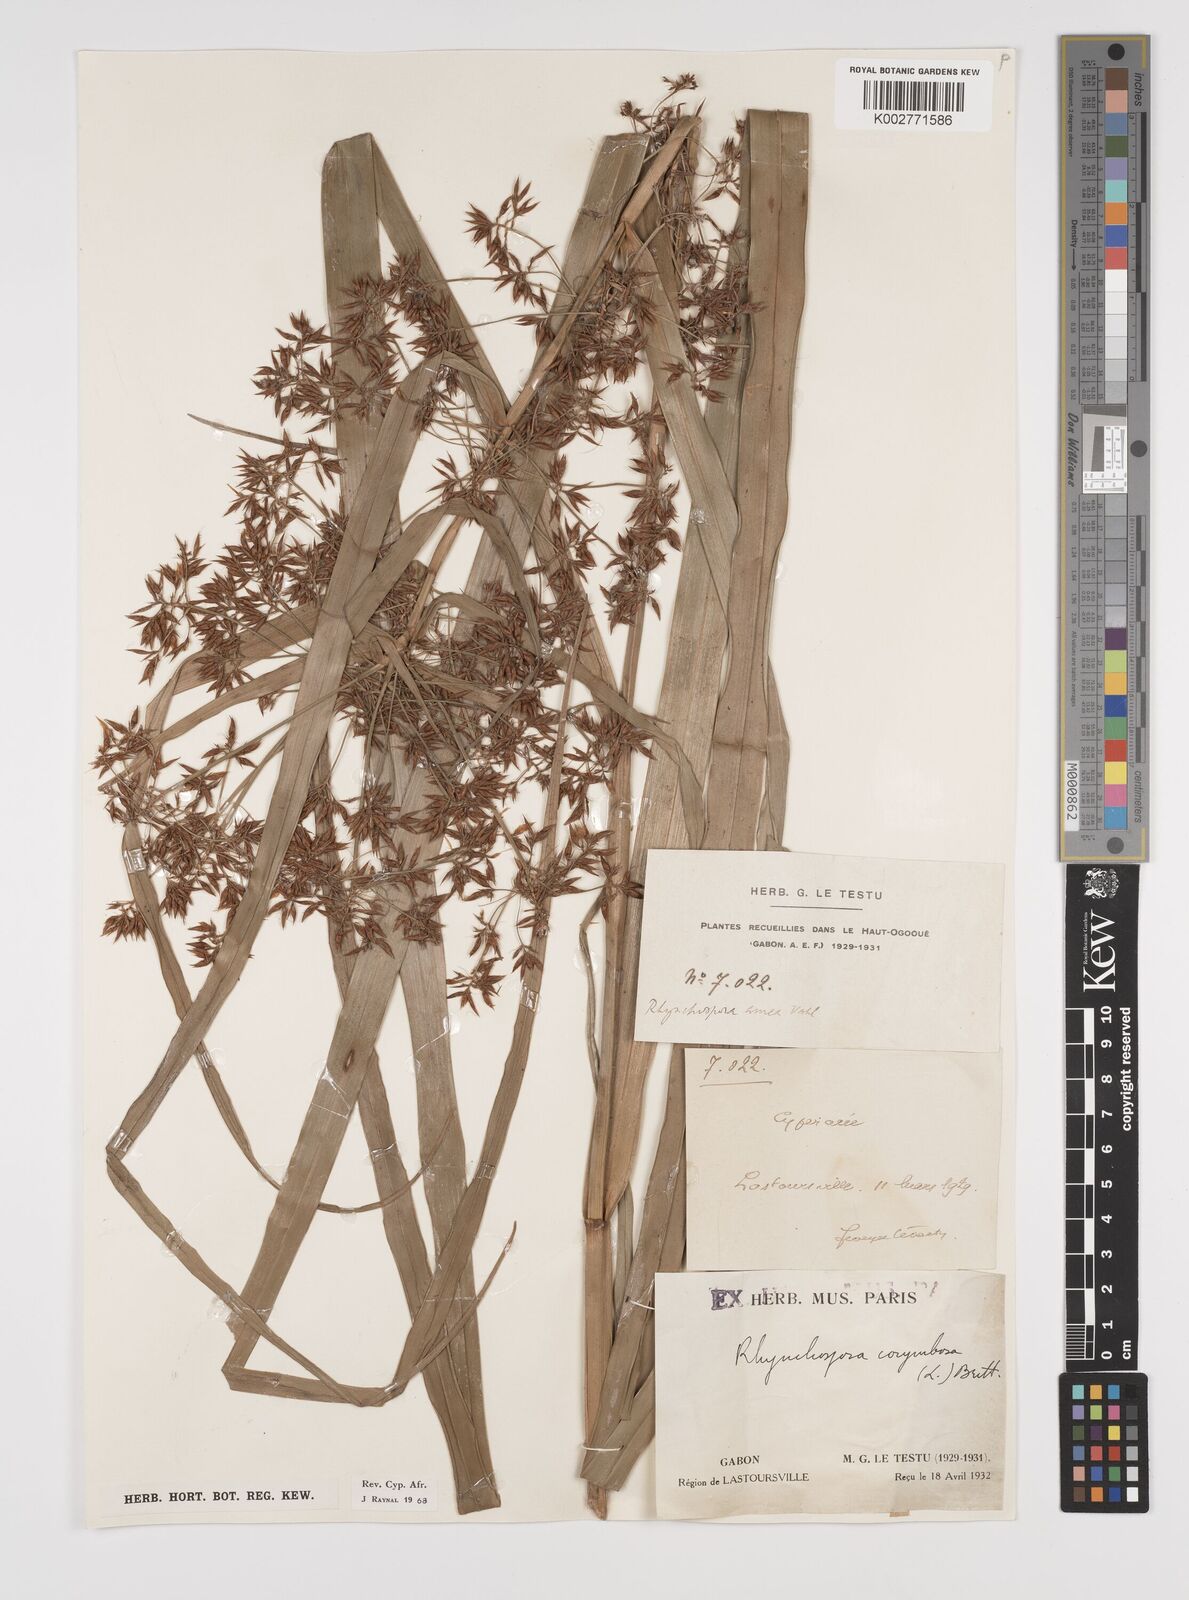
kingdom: Plantae
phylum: Tracheophyta
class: Liliopsida
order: Poales
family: Cyperaceae
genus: Rhynchospora
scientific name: Rhynchospora corymbosa
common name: Golden beak sedge
